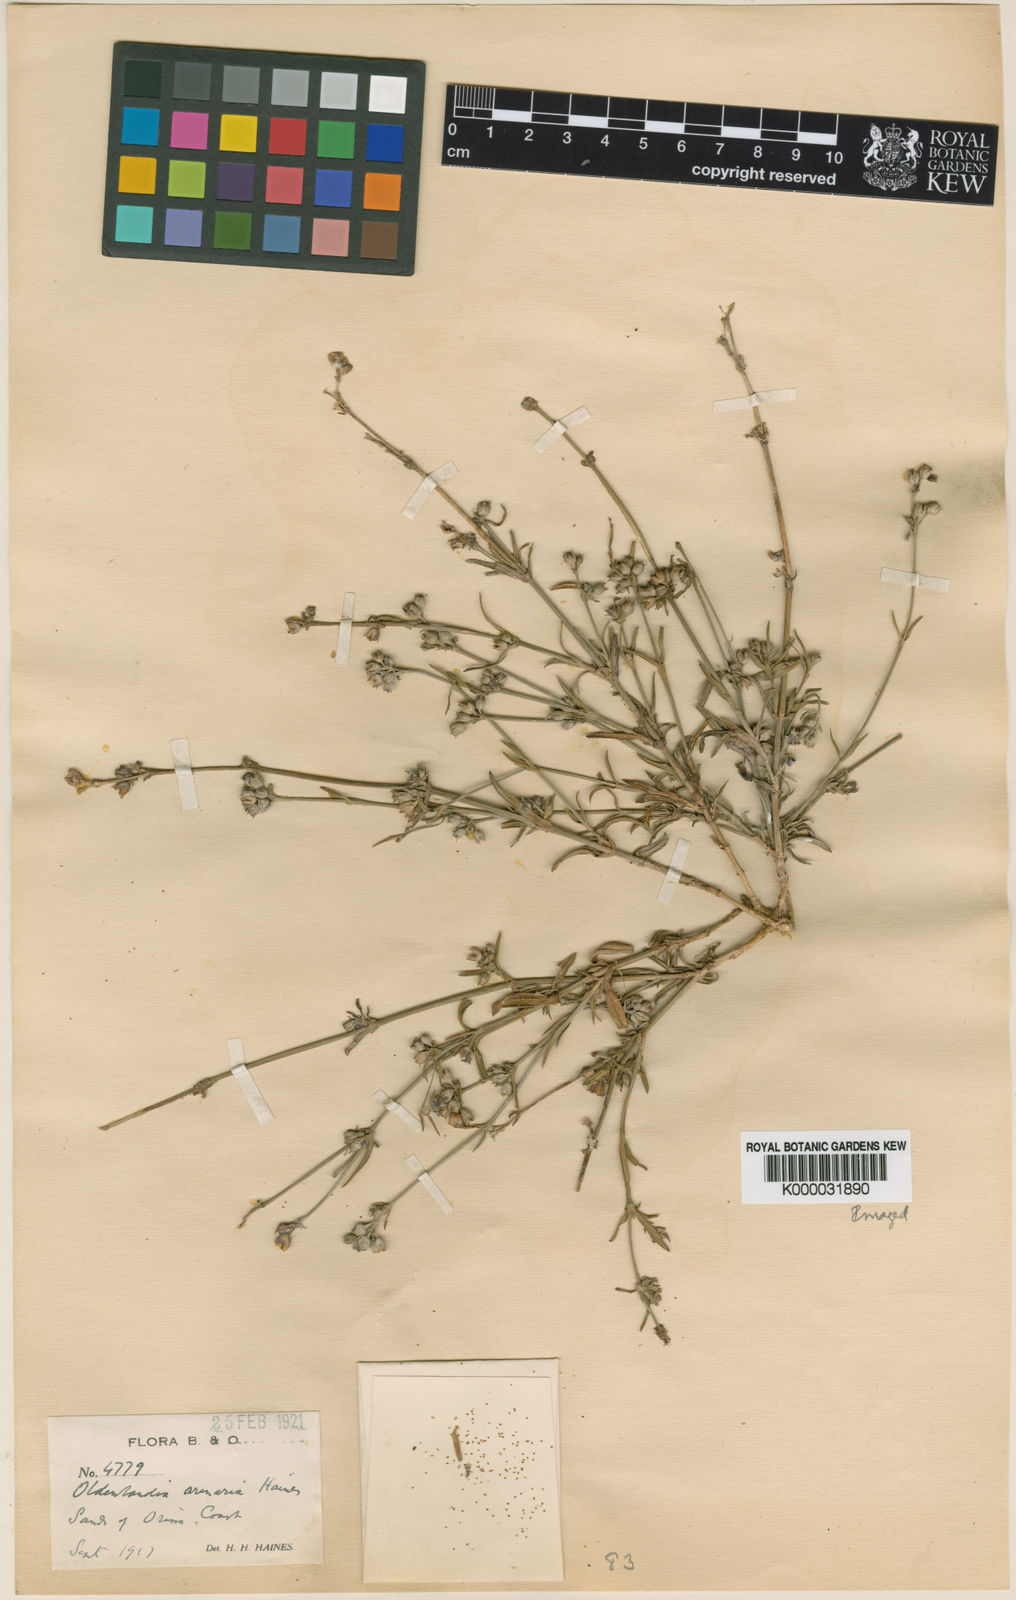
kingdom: Plantae
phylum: Tracheophyta
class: Magnoliopsida
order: Gentianales
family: Rubiaceae
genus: Kohautia
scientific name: Kohautia
